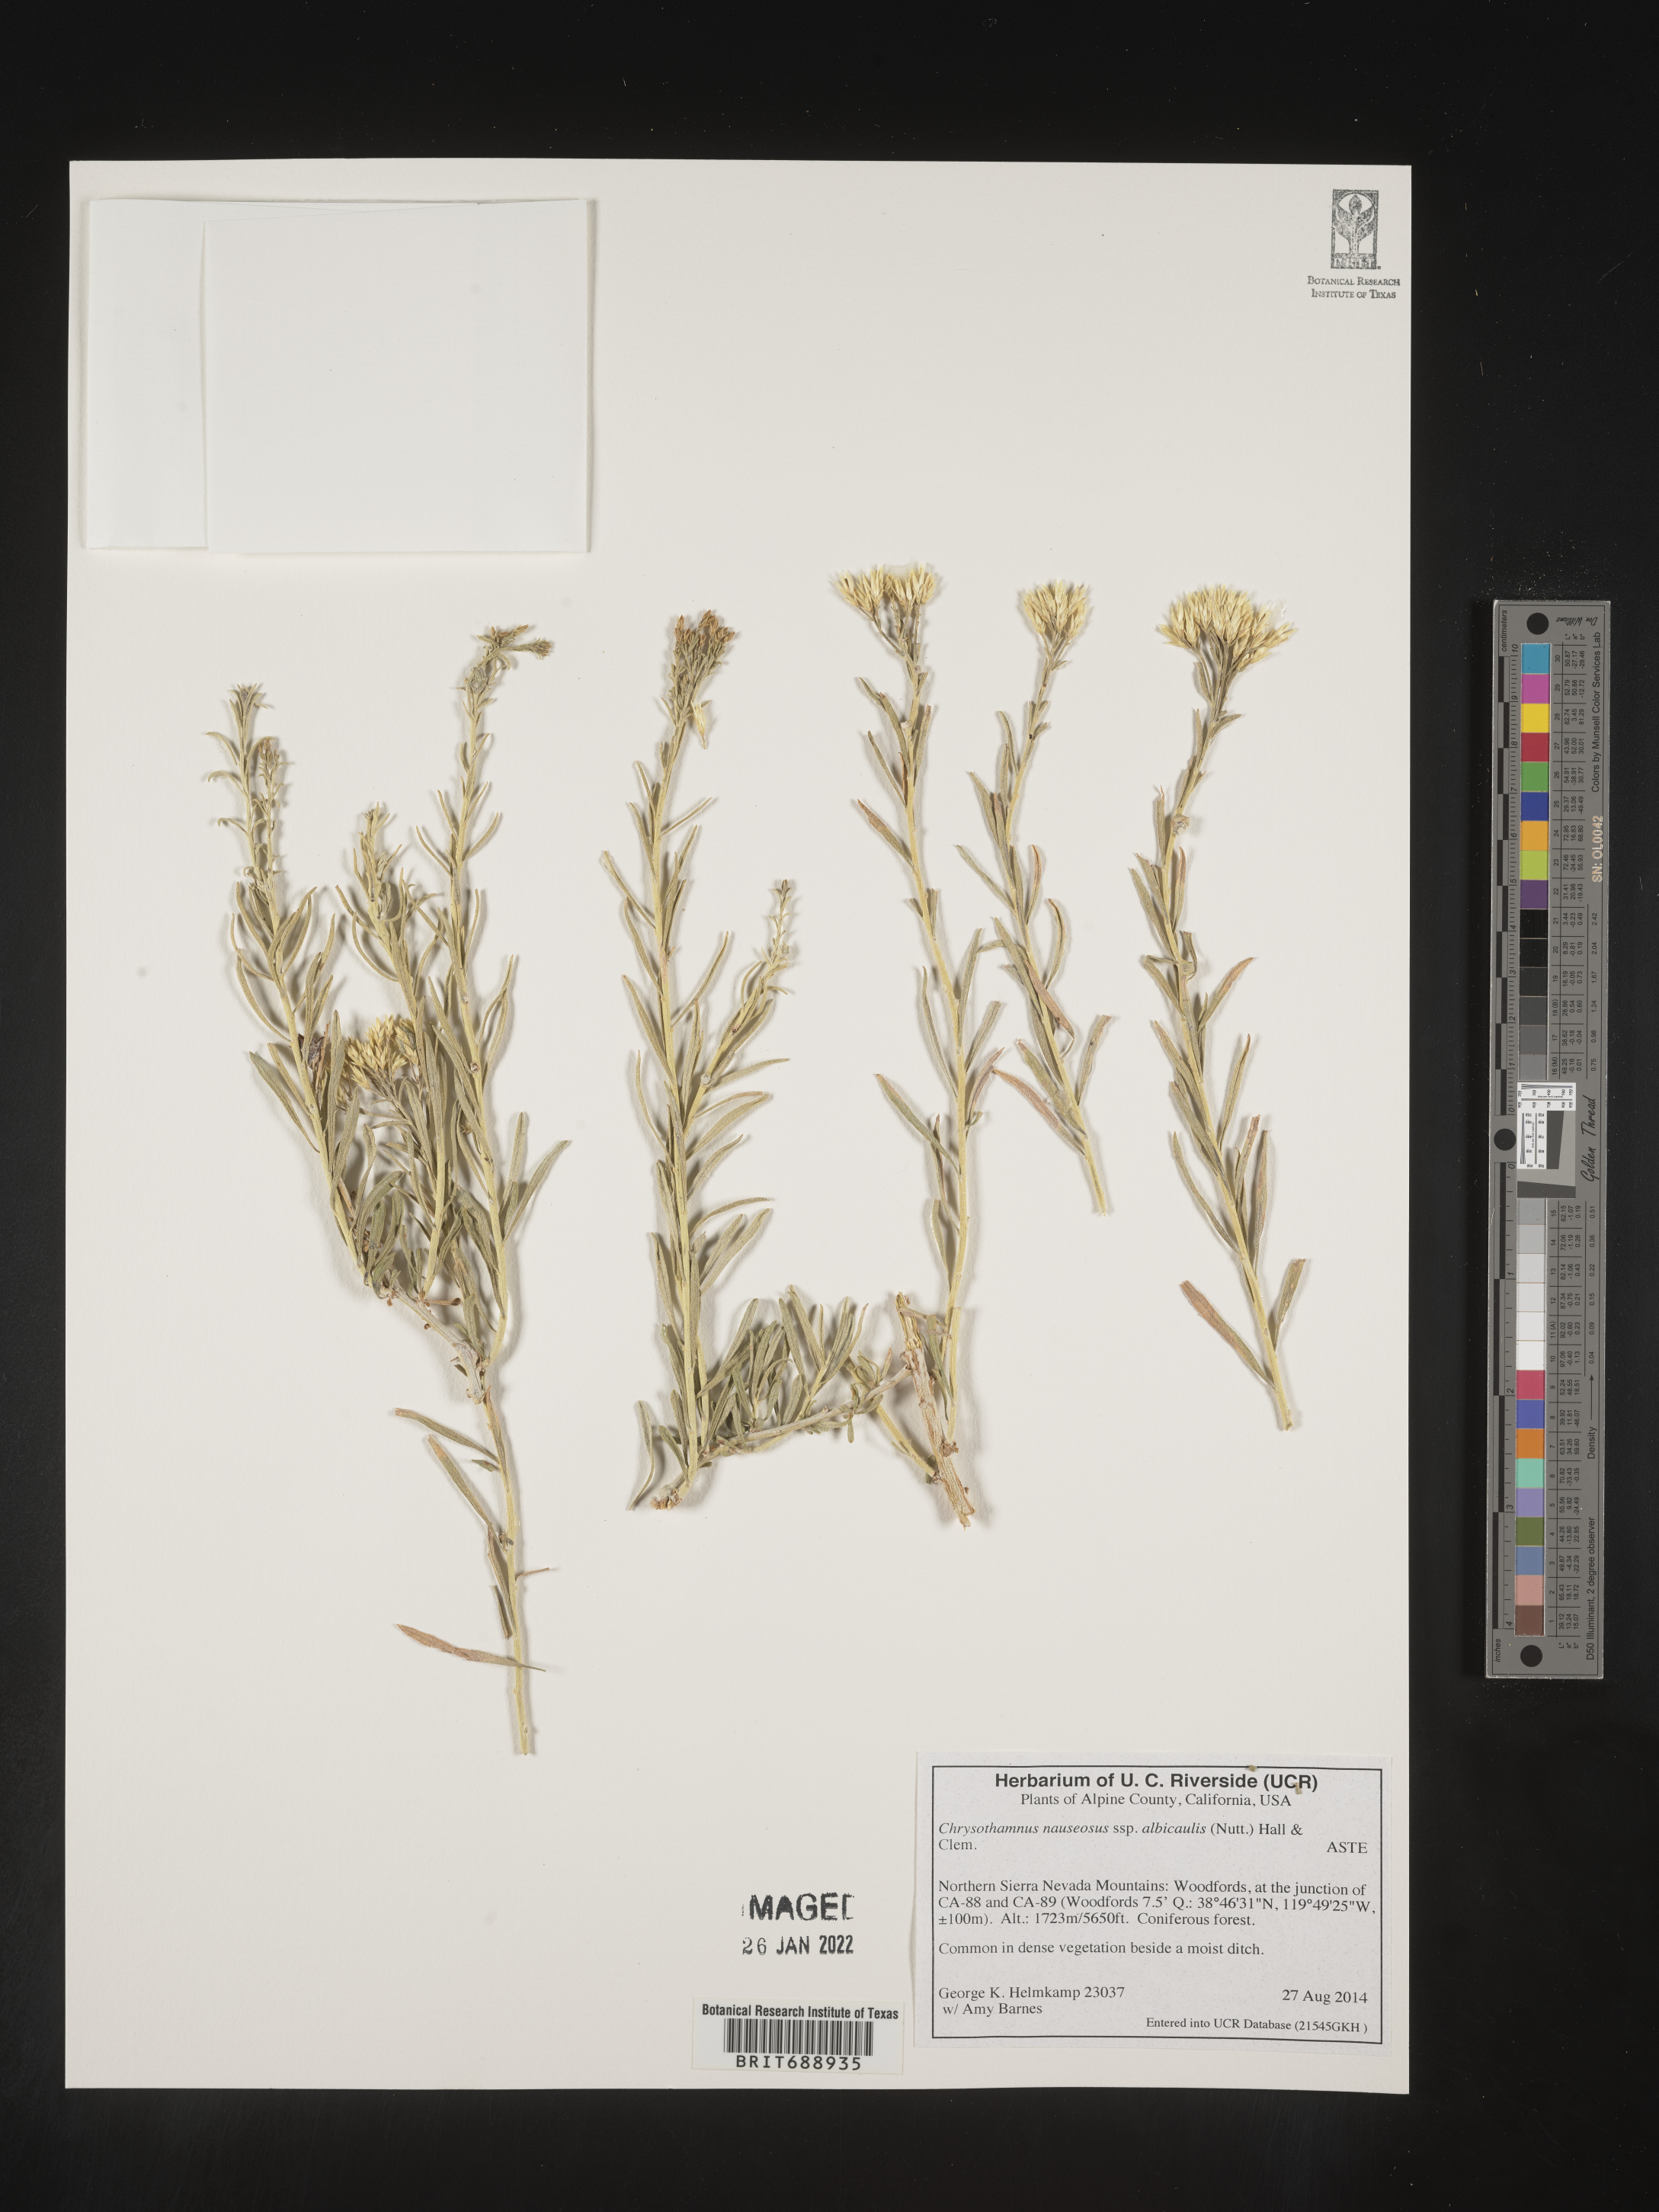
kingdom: Plantae
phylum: Tracheophyta
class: Magnoliopsida
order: Asterales
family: Asteraceae
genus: Ericameria
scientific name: Ericameria nauseosa
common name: Rubber rabbitbrush
